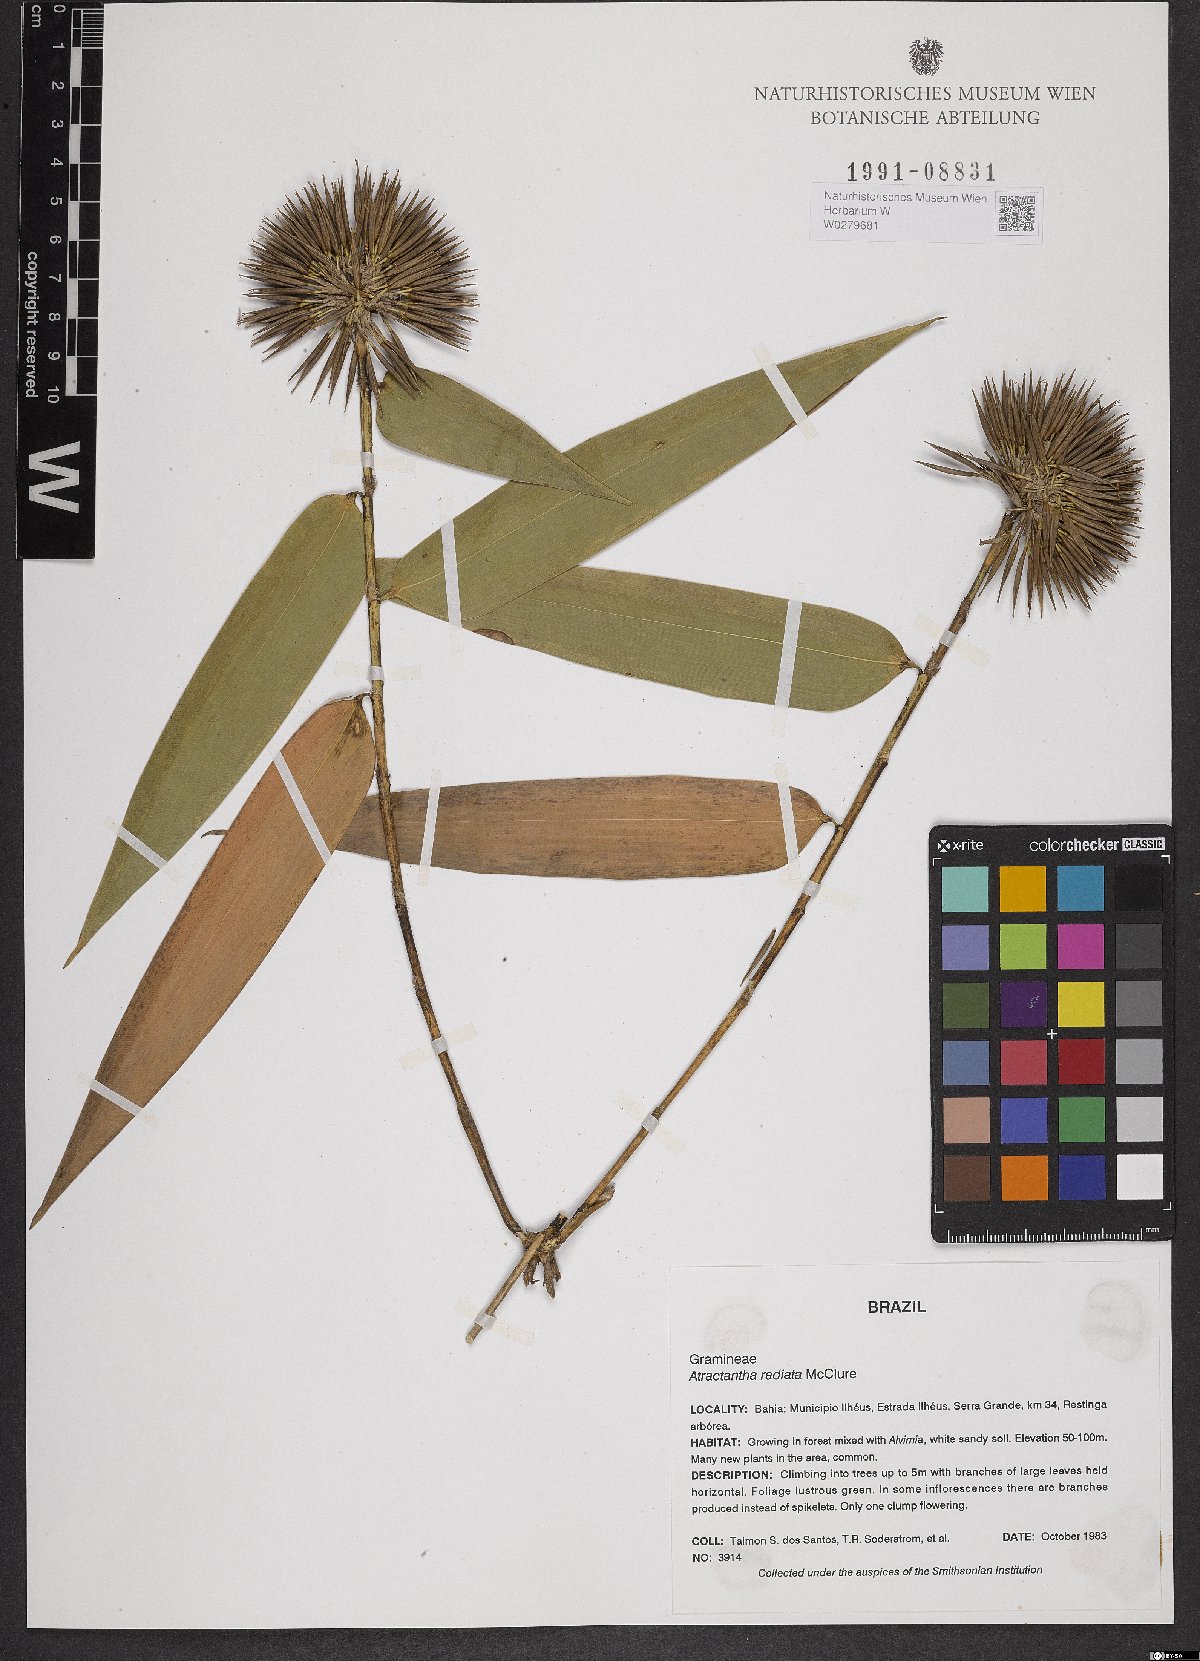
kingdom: Plantae
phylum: Tracheophyta
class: Liliopsida
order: Poales
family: Poaceae
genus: Atractantha
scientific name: Atractantha radiata
